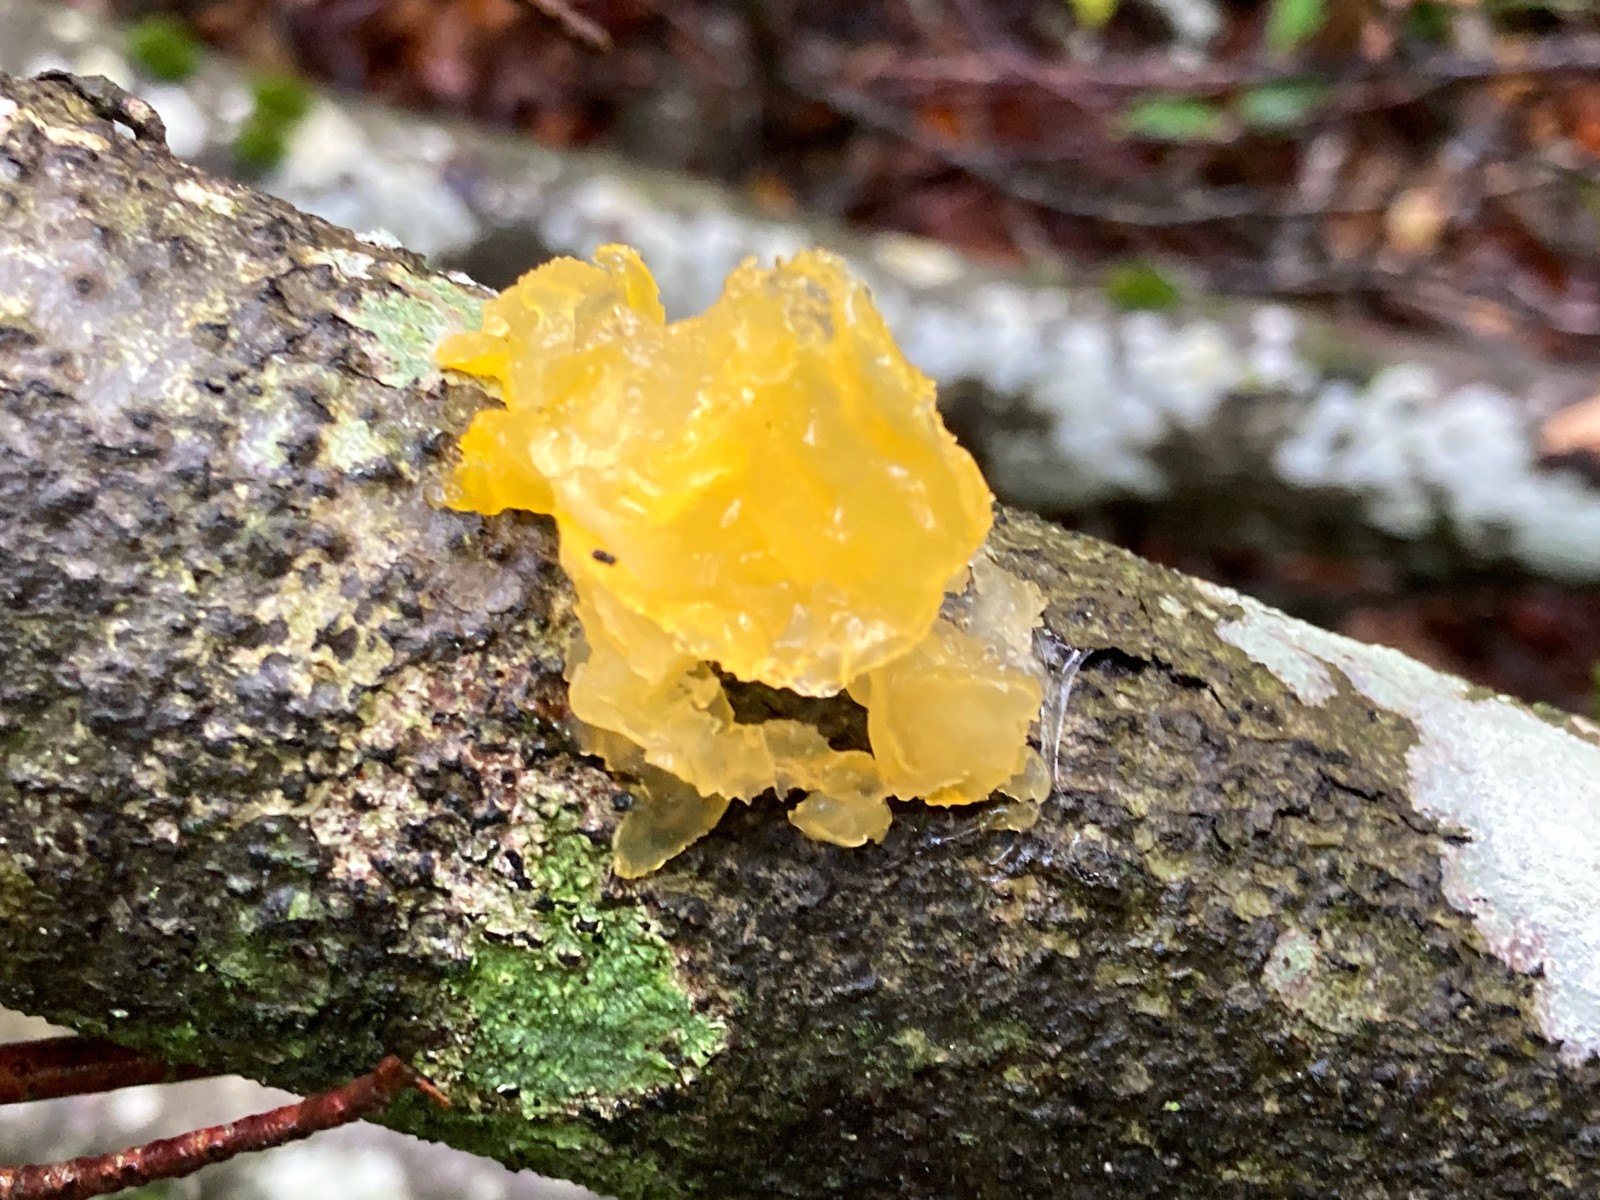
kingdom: Fungi
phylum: Basidiomycota
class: Tremellomycetes
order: Tremellales
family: Tremellaceae
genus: Tremella
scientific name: Tremella mesenterica
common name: gul bævresvamp
